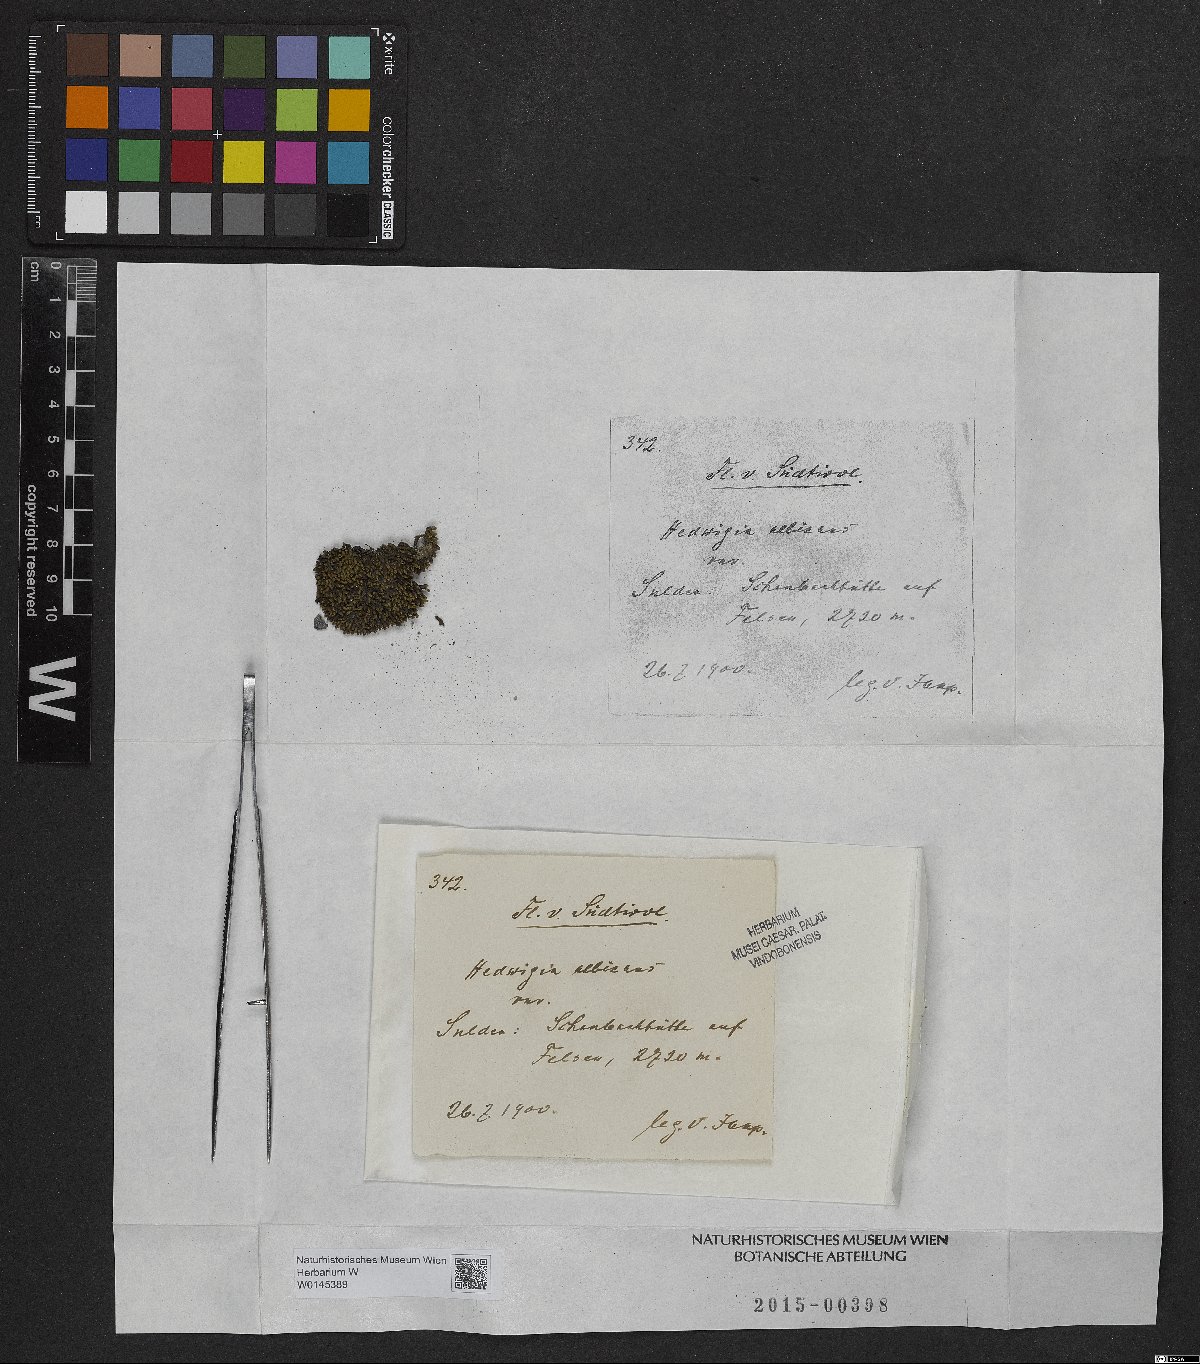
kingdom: Plantae
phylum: Bryophyta
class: Bryopsida
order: Hedwigiales
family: Hedwigiaceae
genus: Hedwigia
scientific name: Hedwigia ciliata
